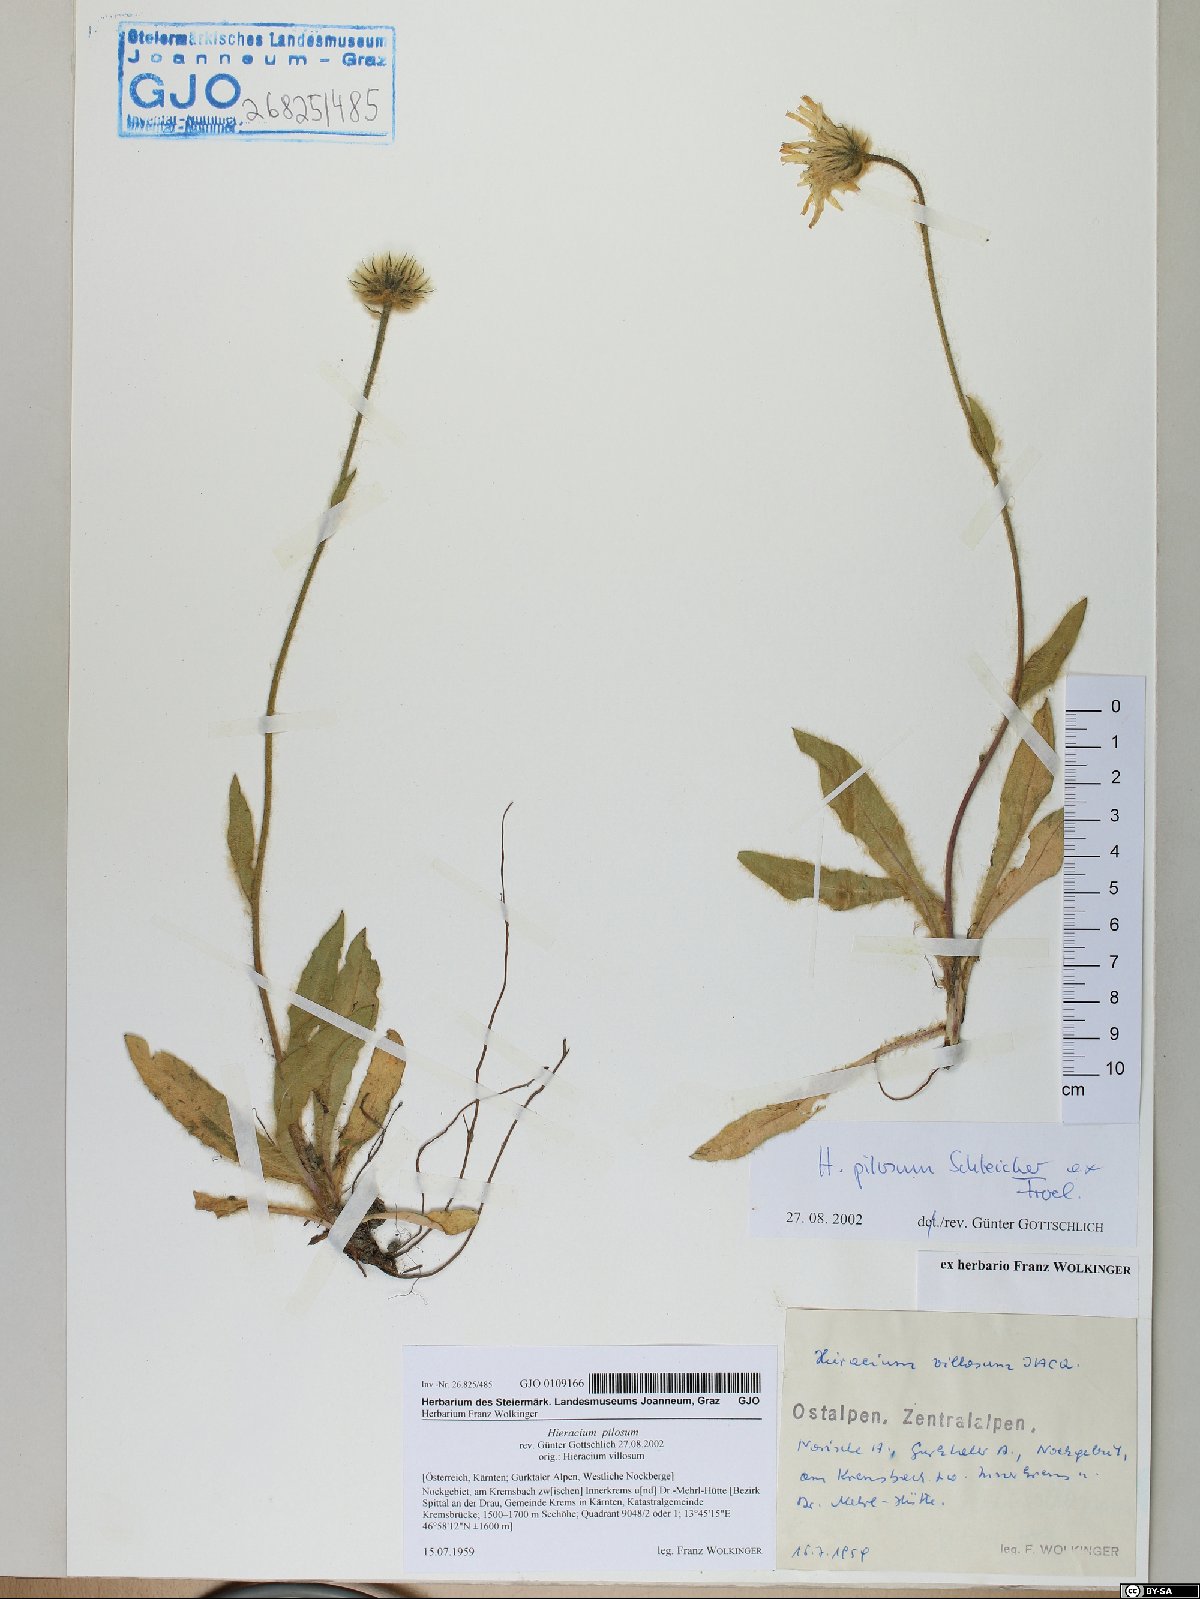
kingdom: Plantae
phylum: Tracheophyta
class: Magnoliopsida
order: Asterales
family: Asteraceae
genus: Hieracium
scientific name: Hieracium pilosum
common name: Fimbriate-pitted hawkweed
